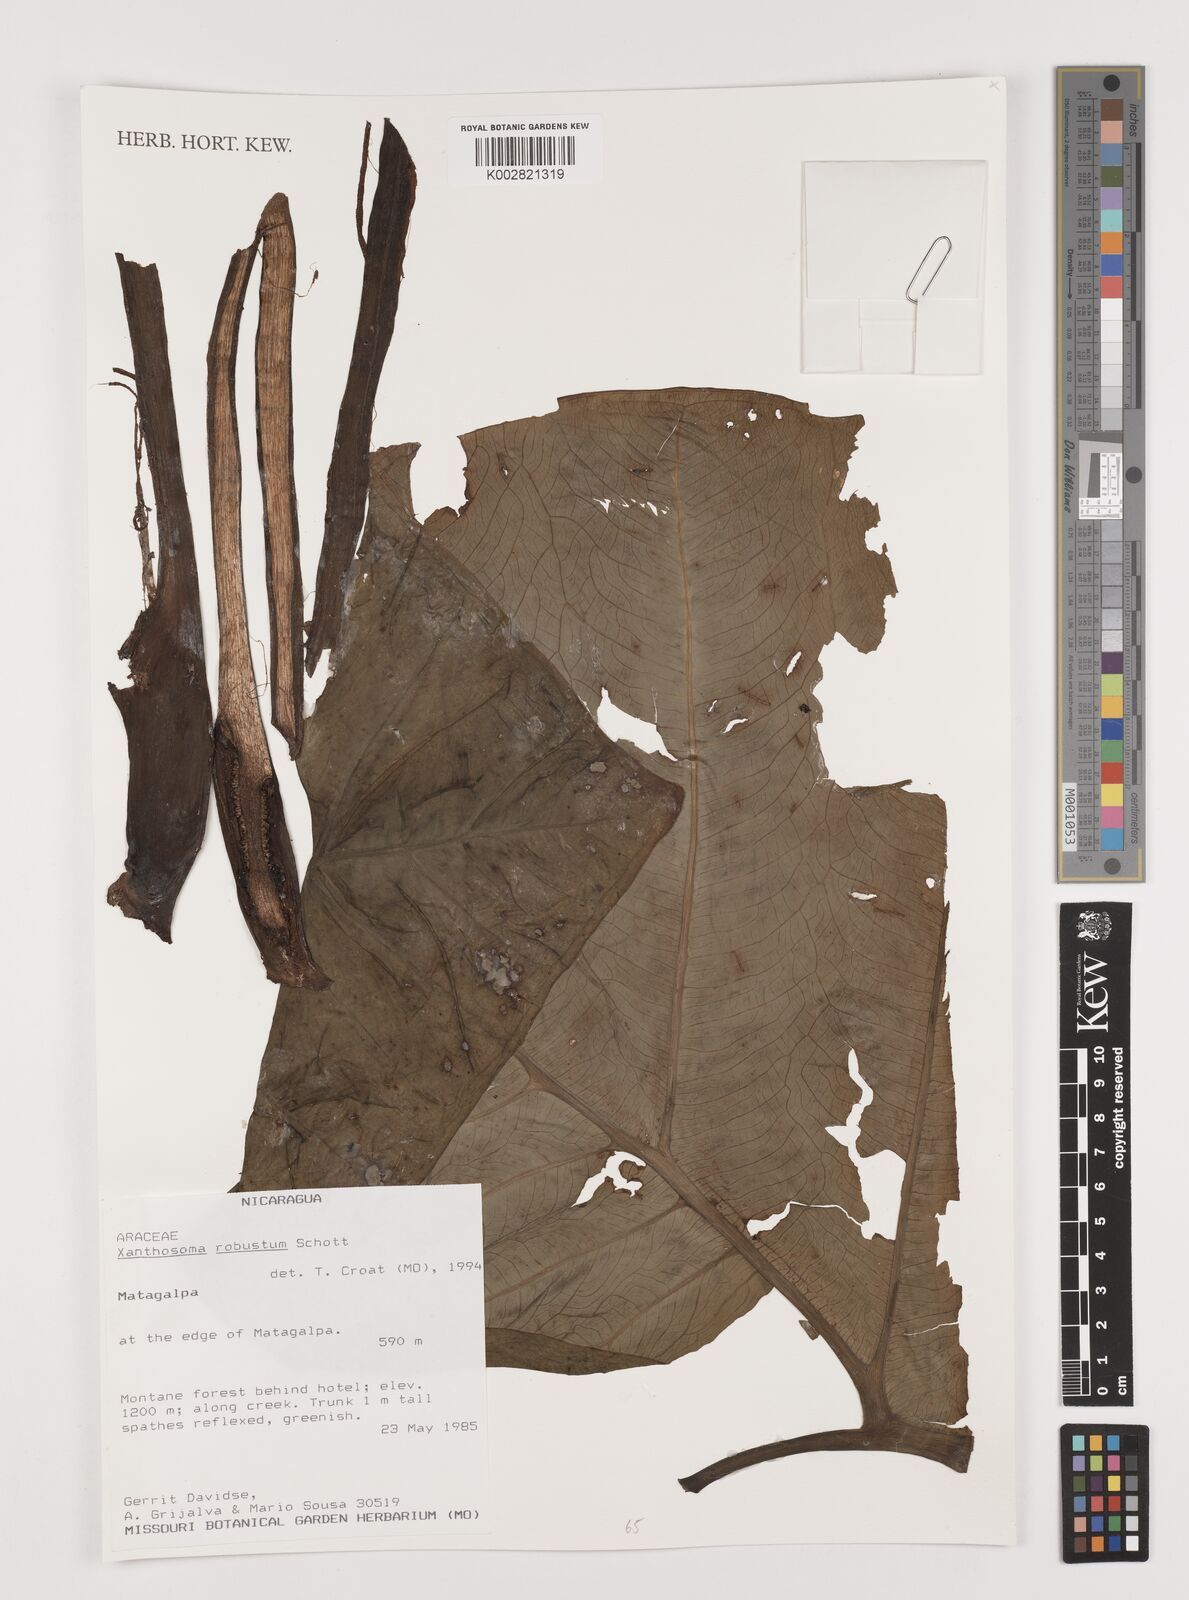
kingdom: Plantae
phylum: Tracheophyta
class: Liliopsida
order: Alismatales
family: Araceae
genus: Xanthosoma
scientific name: Xanthosoma robustum
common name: Capote
